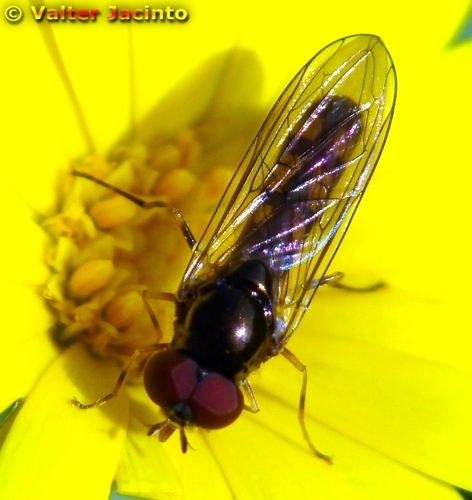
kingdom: Animalia
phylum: Arthropoda
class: Insecta
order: Diptera
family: Syrphidae
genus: Melanostoma
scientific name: Melanostoma scalare
